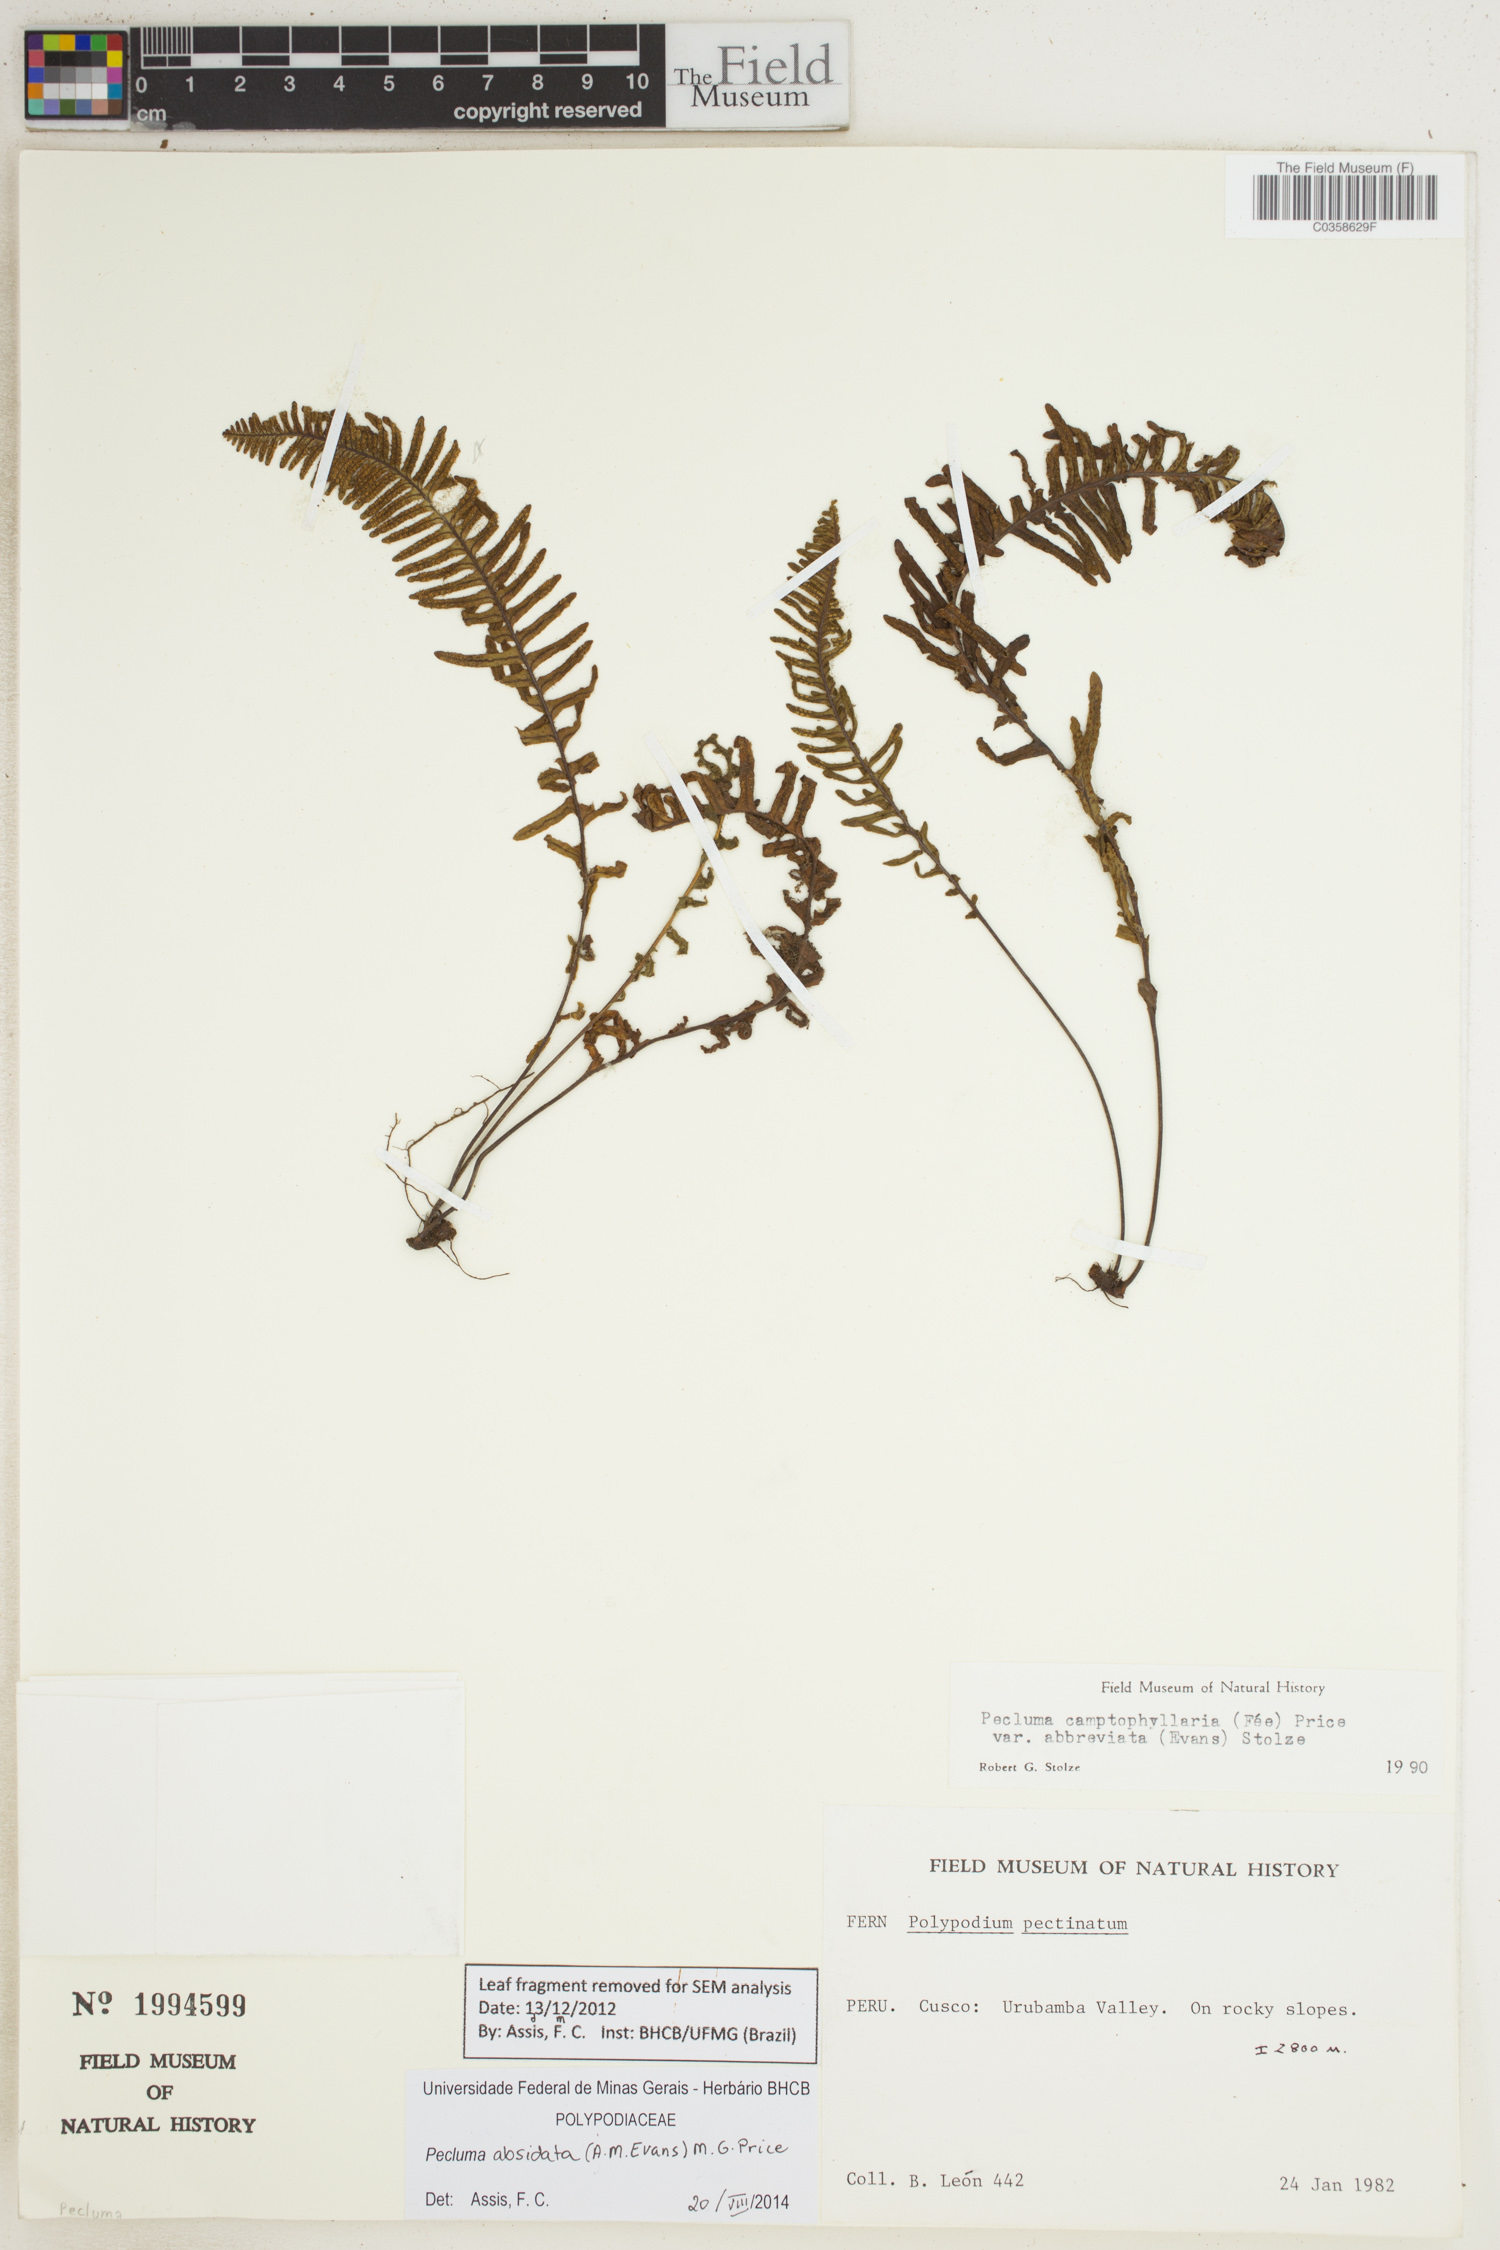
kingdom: Plantae
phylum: Tracheophyta
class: Polypodiopsida
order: Polypodiales
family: Polypodiaceae
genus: Pecluma
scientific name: Pecluma absidata
